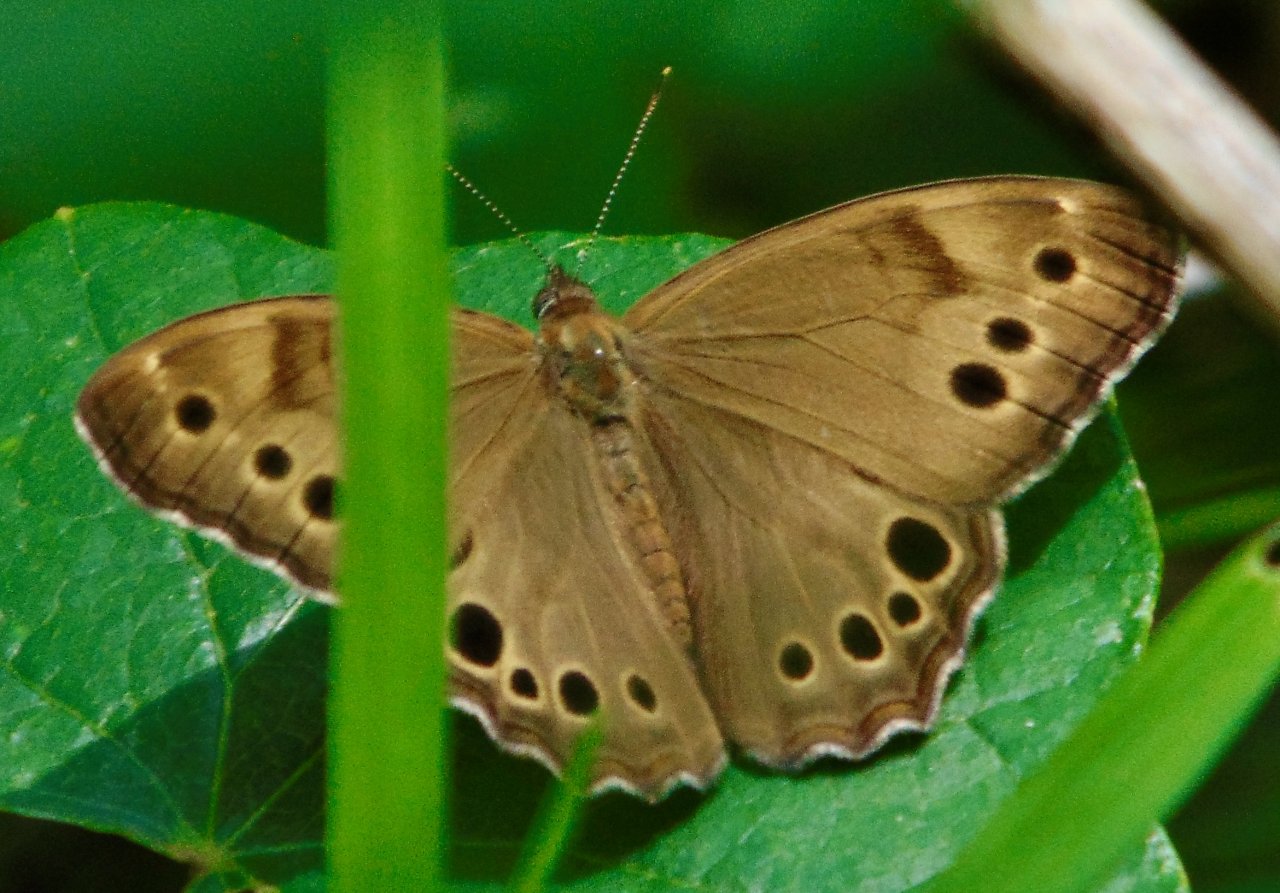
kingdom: Animalia
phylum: Arthropoda
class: Insecta
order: Lepidoptera
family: Nymphalidae
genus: Lethe
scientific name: Lethe anthedon
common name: Northern Pearly-Eye
